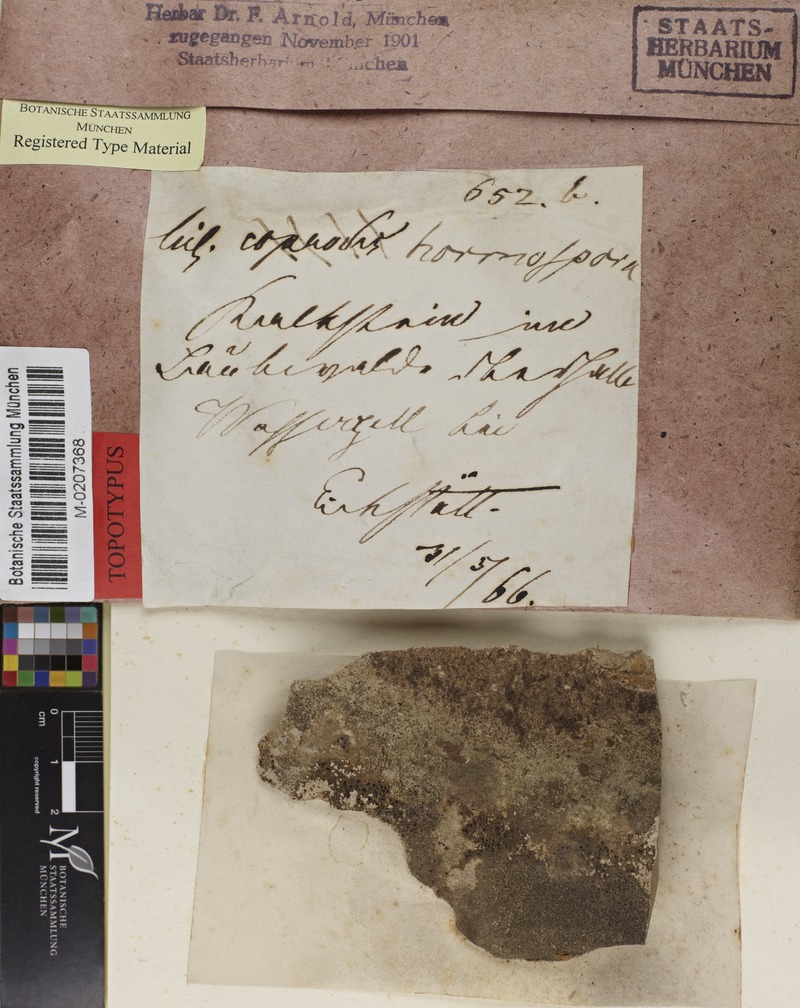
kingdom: Fungi
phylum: Ascomycota
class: Lecanoromycetes
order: Lecanorales
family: Ramalinaceae
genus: Toniniopsis
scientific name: Toniniopsis coprodes
